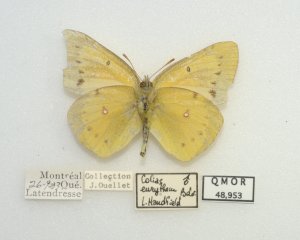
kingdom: Animalia
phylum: Arthropoda
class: Insecta
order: Lepidoptera
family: Pieridae
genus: Colias
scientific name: Colias eurytheme
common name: Orange Sulphur
